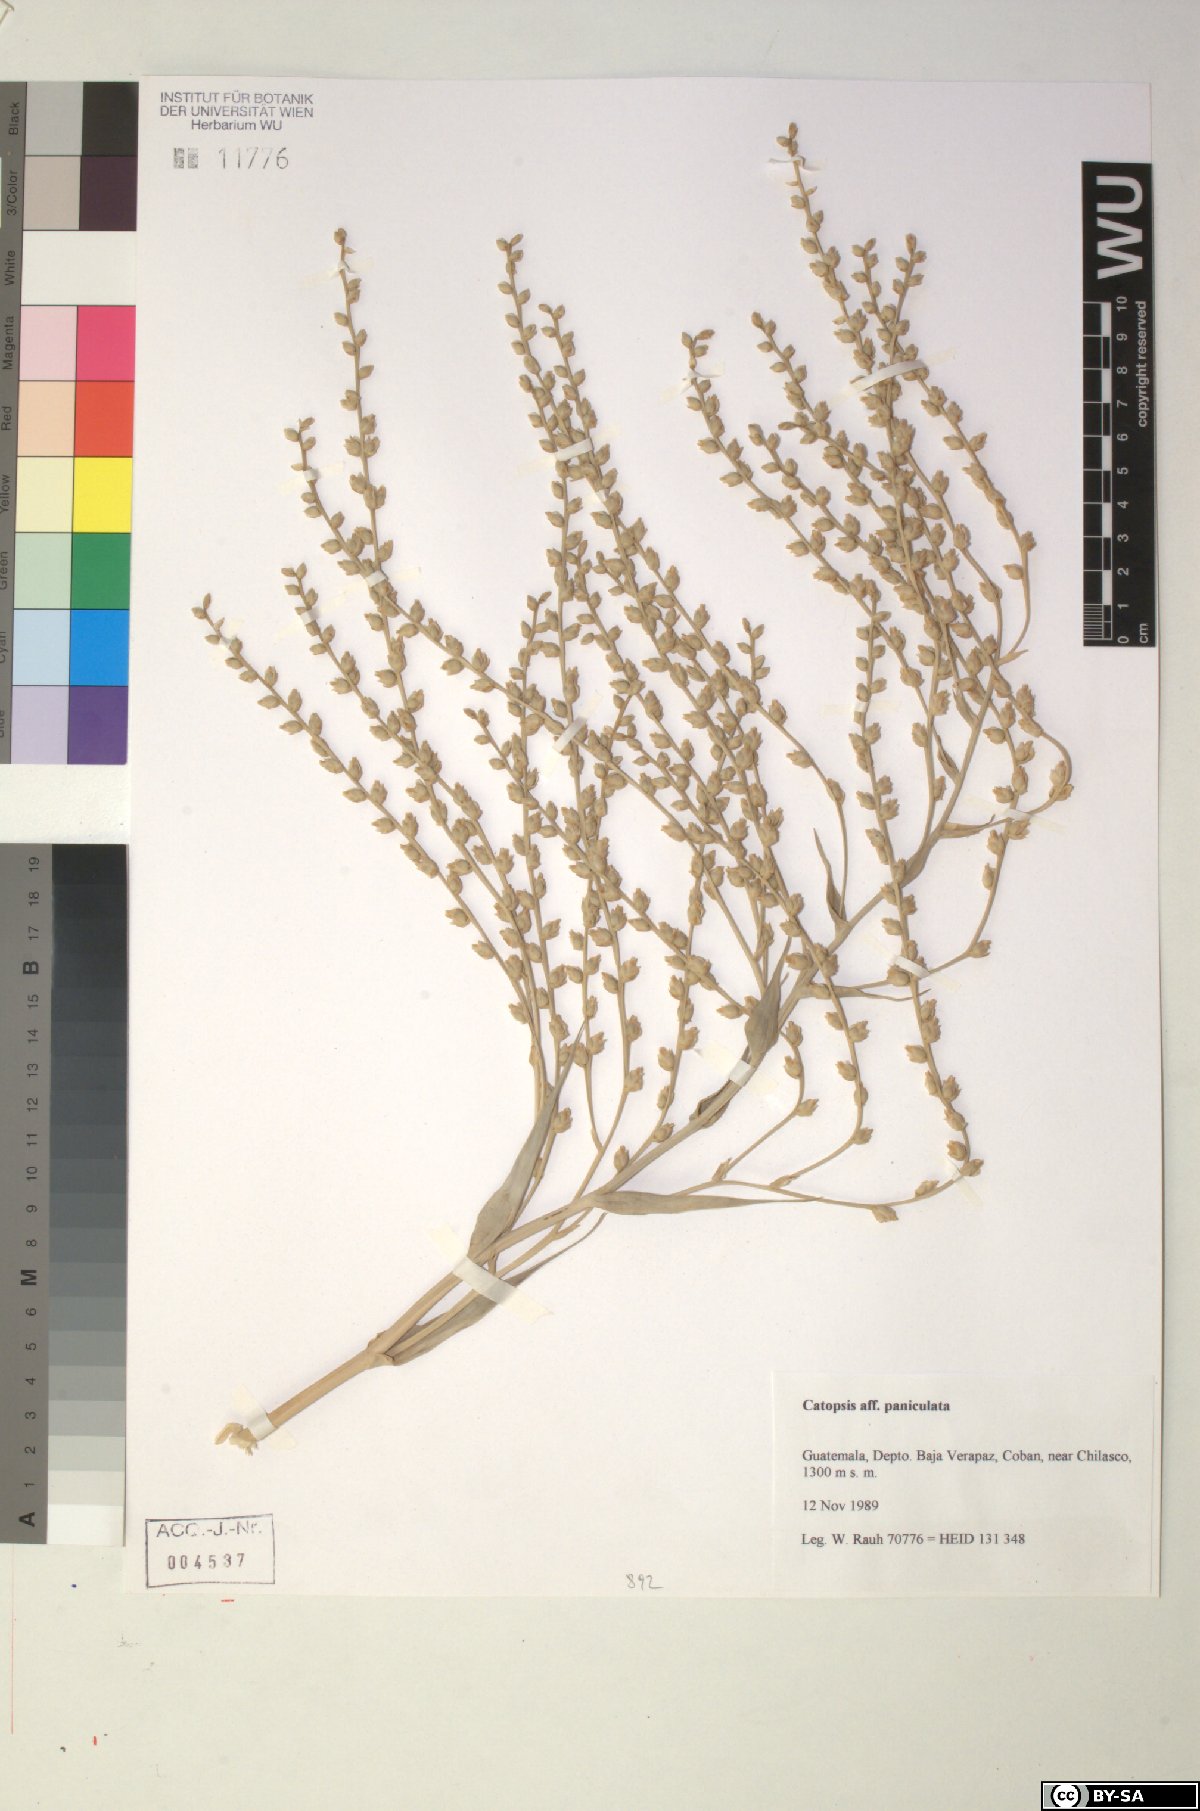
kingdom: Plantae
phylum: Tracheophyta
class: Liliopsida
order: Poales
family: Bromeliaceae
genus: Catopsis
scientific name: Catopsis paniculata
